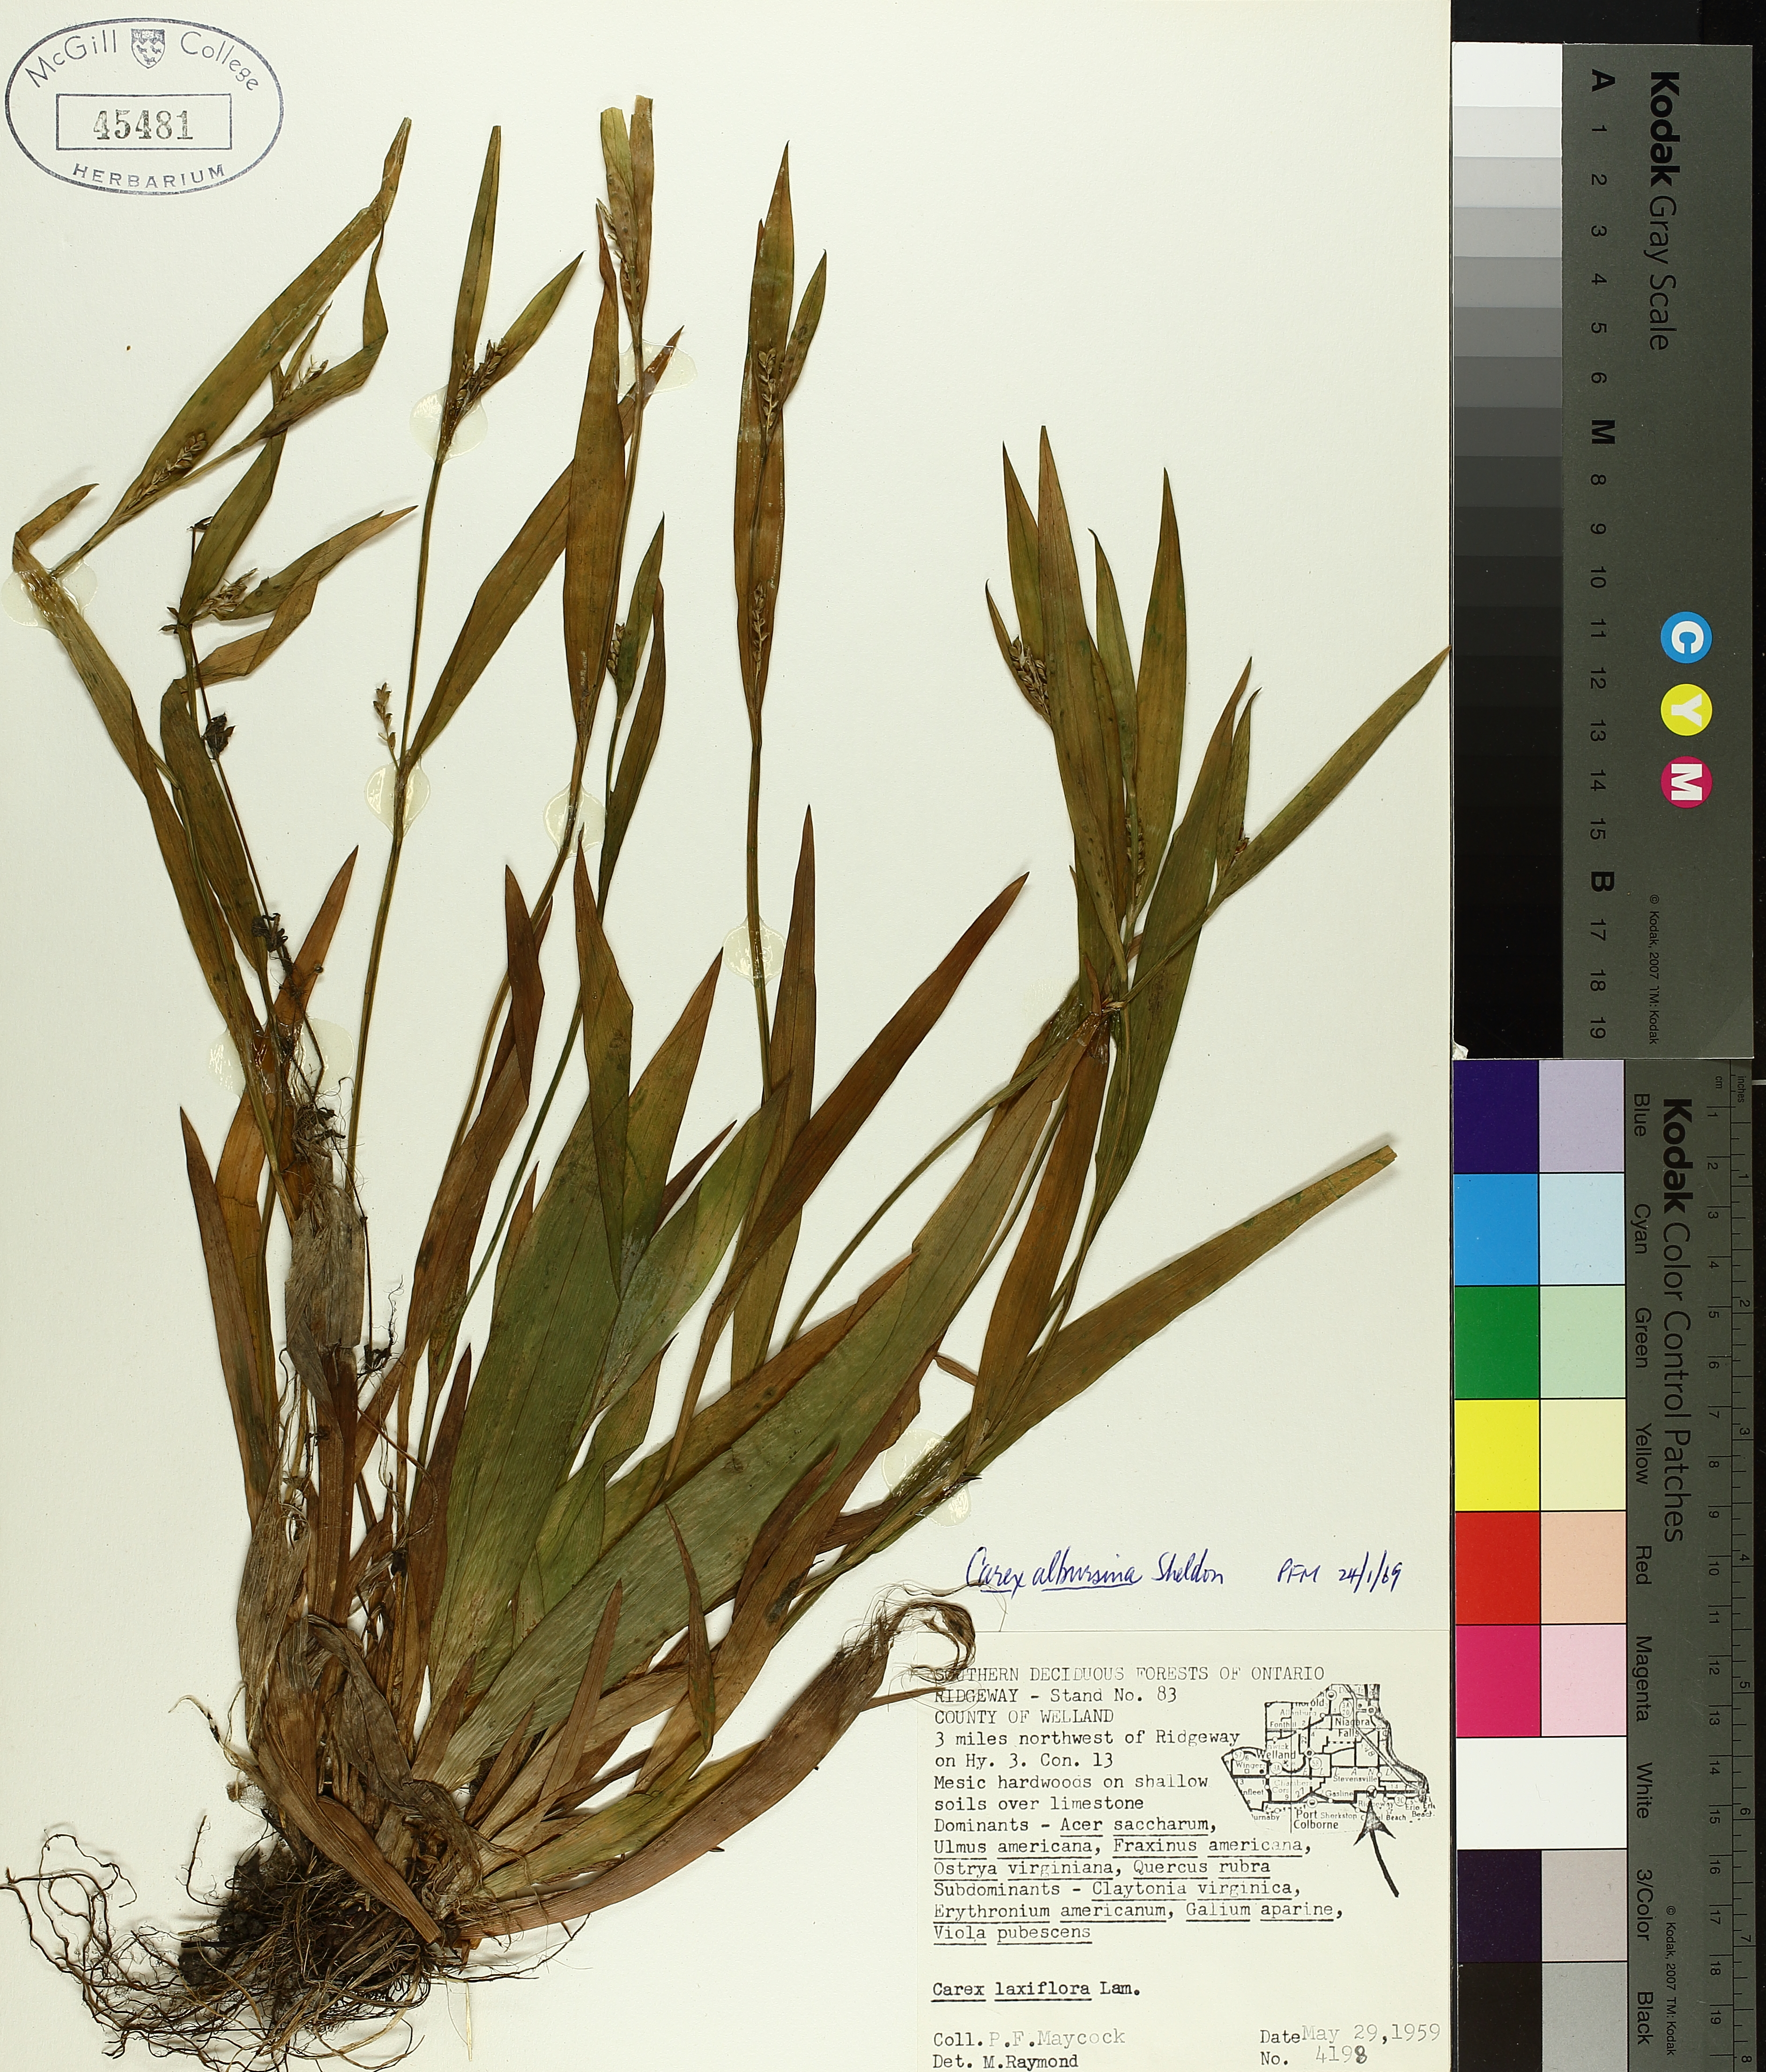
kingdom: Plantae
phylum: Tracheophyta
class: Liliopsida
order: Poales
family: Cyperaceae
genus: Carex
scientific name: Carex albursina
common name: Blunt-scale wood sedge
